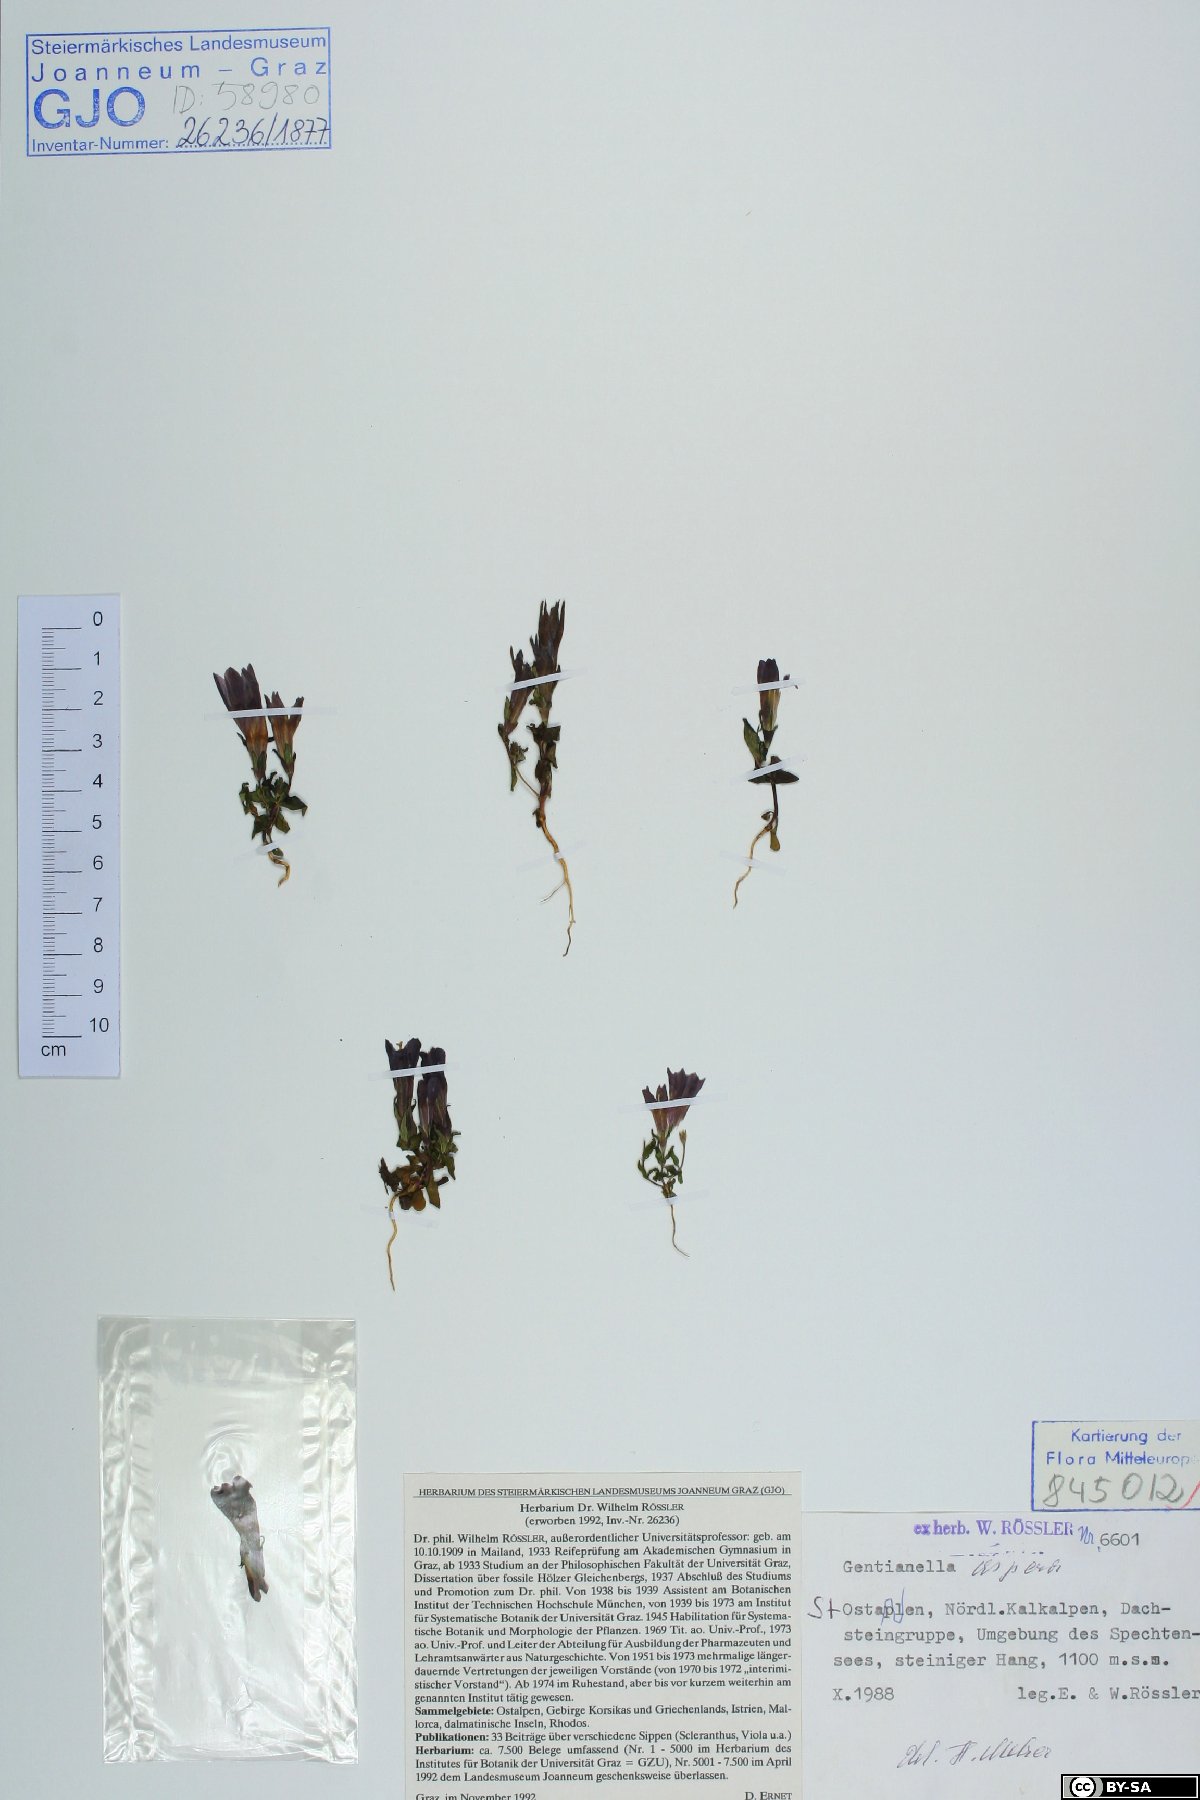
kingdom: Plantae
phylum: Tracheophyta
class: Magnoliopsida
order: Gentianales
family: Gentianaceae
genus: Gentianella
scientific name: Gentianella obtusifolia
